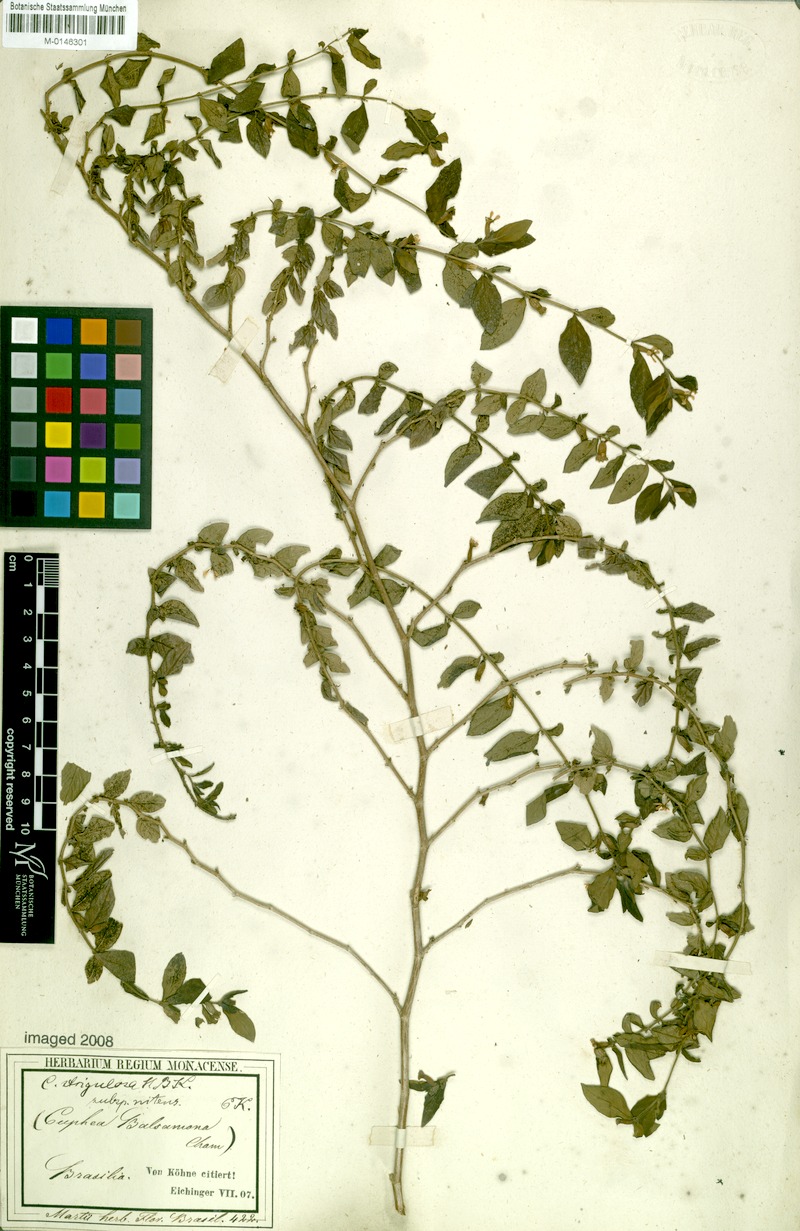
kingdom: Plantae
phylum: Tracheophyta
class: Magnoliopsida
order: Myrtales
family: Lythraceae
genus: Cuphea
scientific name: Cuphea strigulosa
